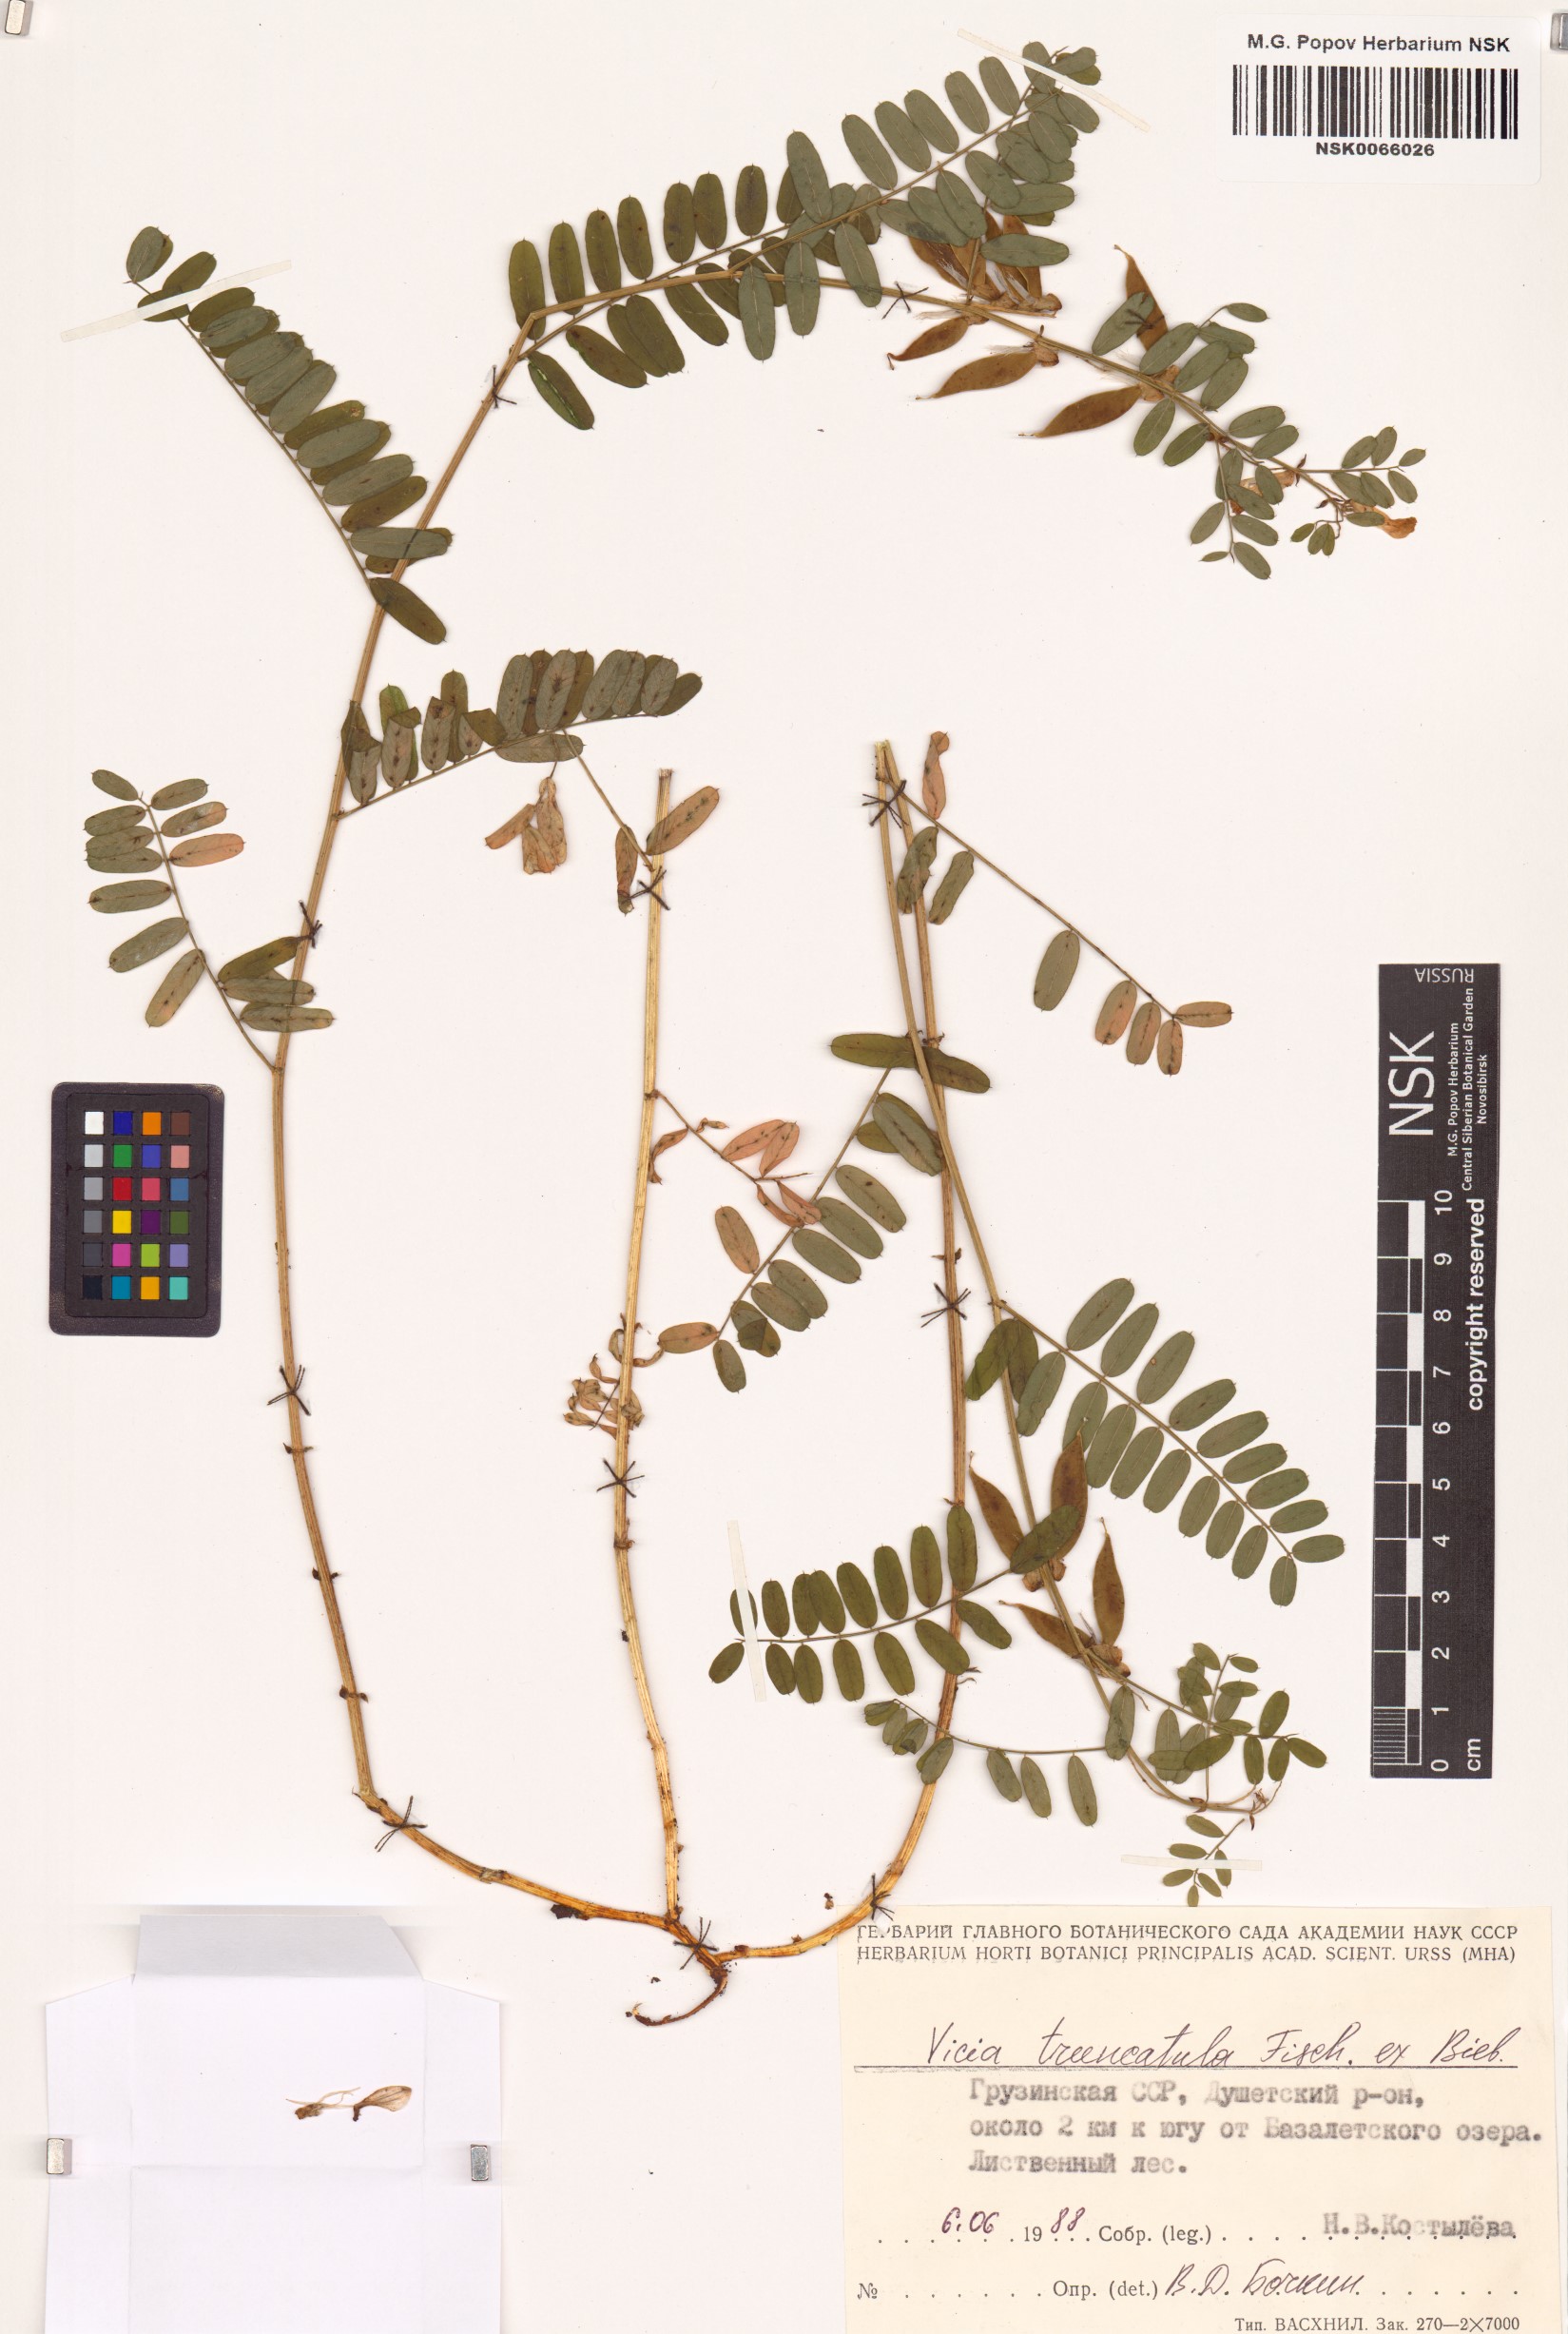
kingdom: Plantae
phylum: Tracheophyta
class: Magnoliopsida
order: Fabales
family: Fabaceae
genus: Vicia
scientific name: Vicia abbreviata
